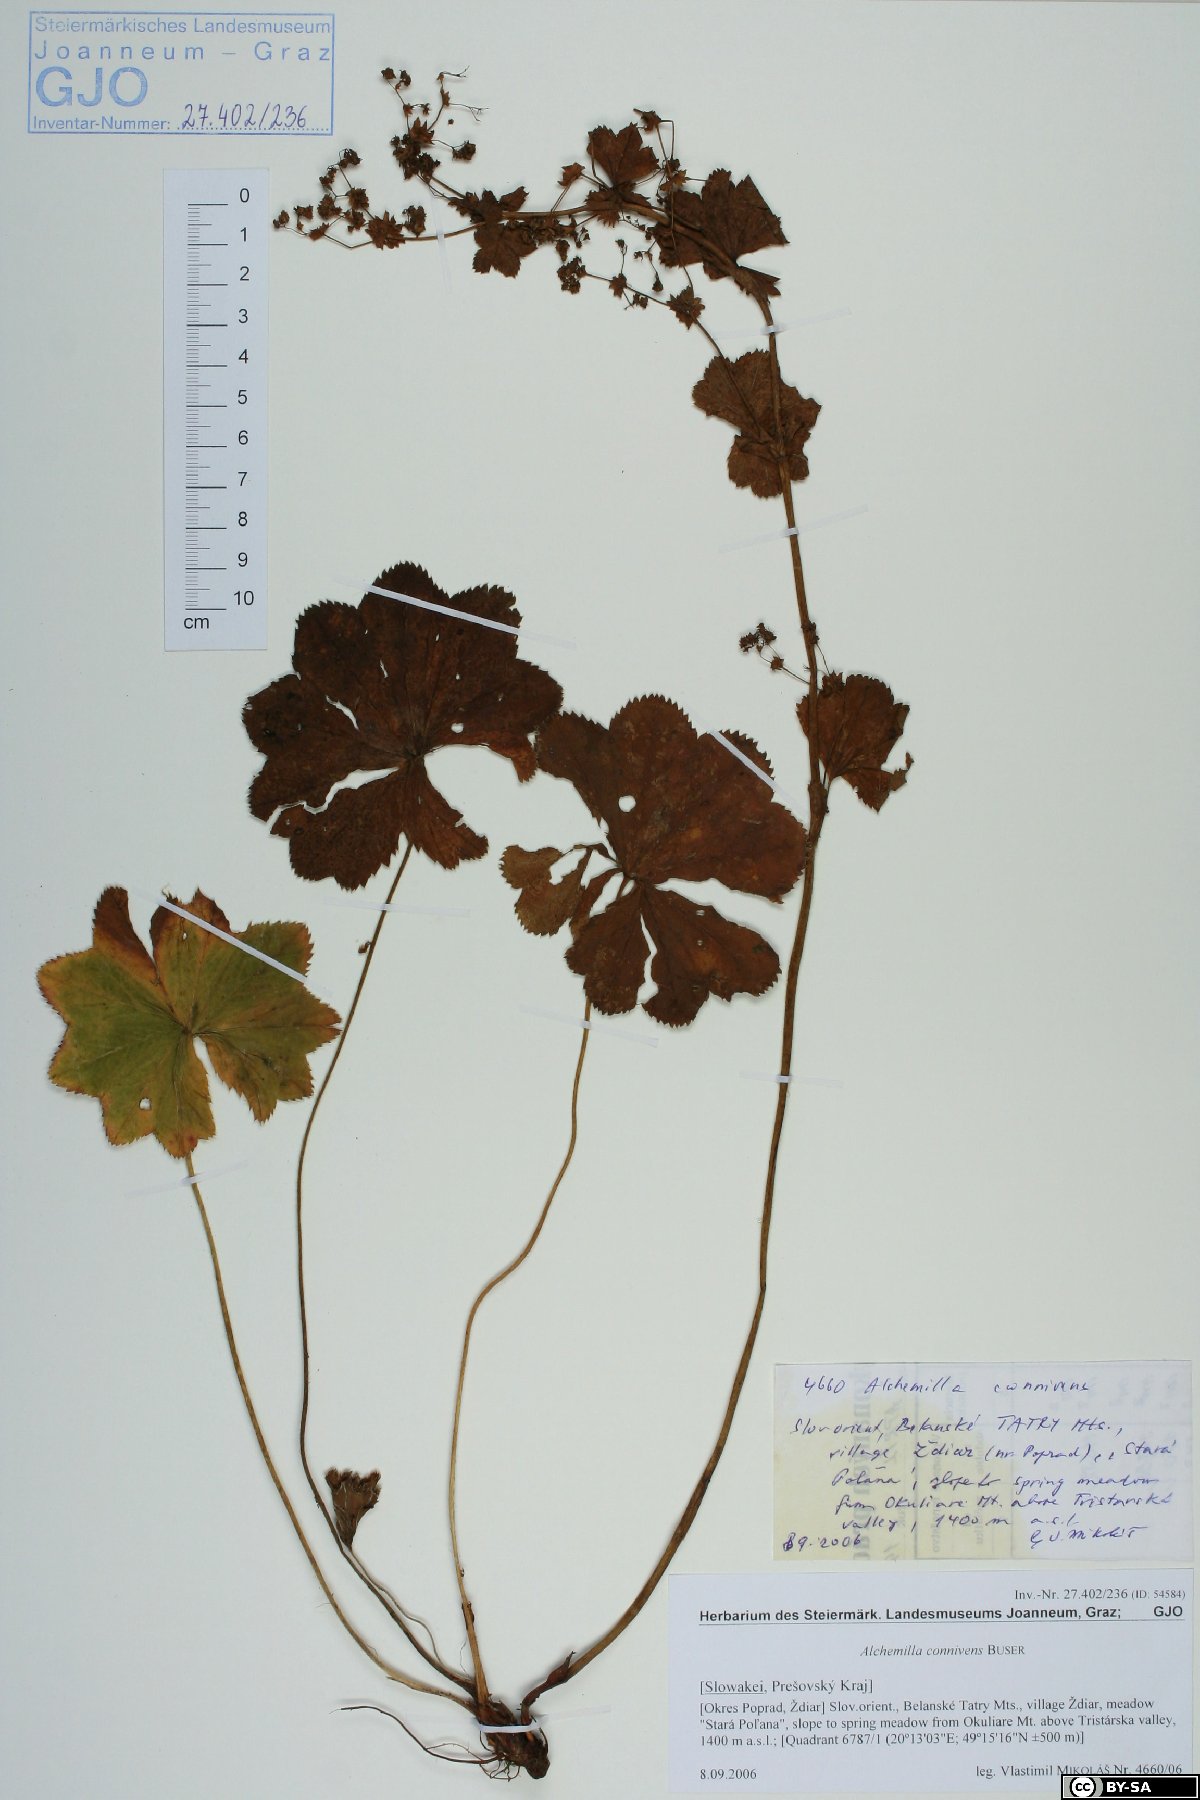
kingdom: Plantae
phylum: Tracheophyta
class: Magnoliopsida
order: Rosales
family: Rosaceae
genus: Alchemilla
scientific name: Alchemilla connivens
